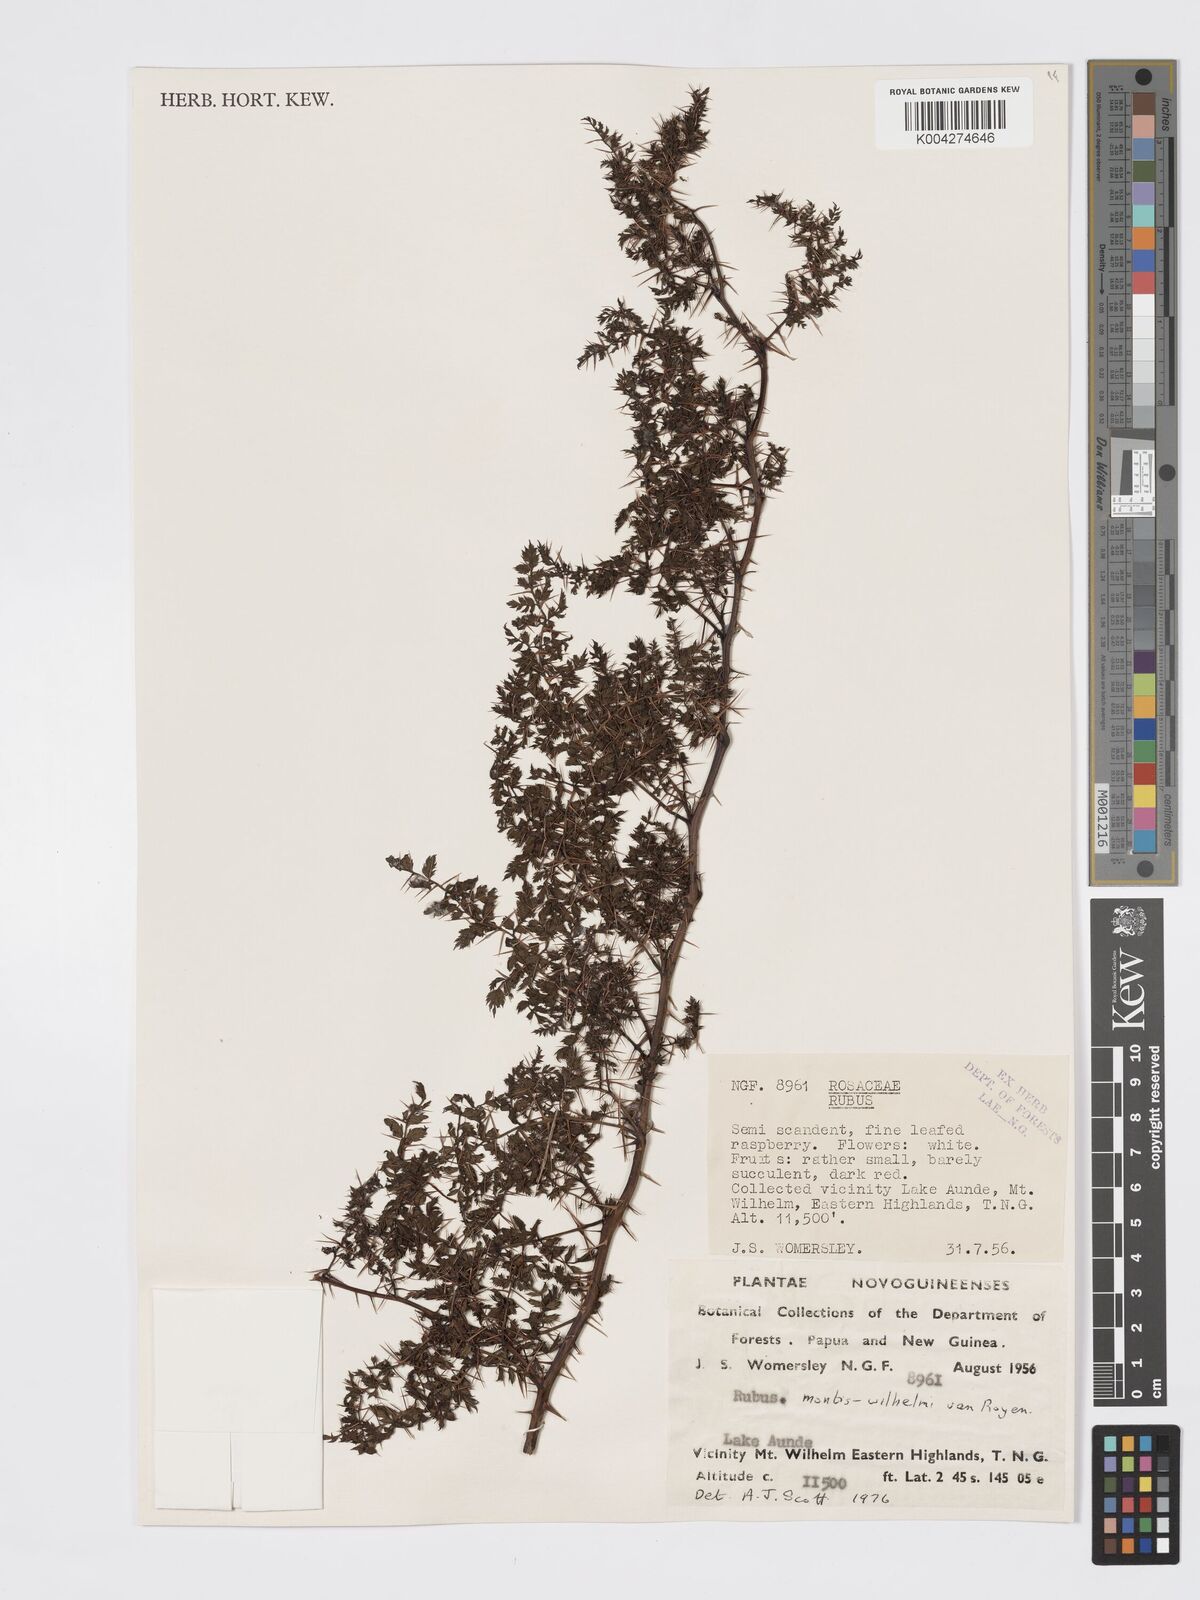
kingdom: Plantae
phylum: Tracheophyta
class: Magnoliopsida
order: Rosales
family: Rosaceae
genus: Rubus
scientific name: Rubus montis-wilhelmii
